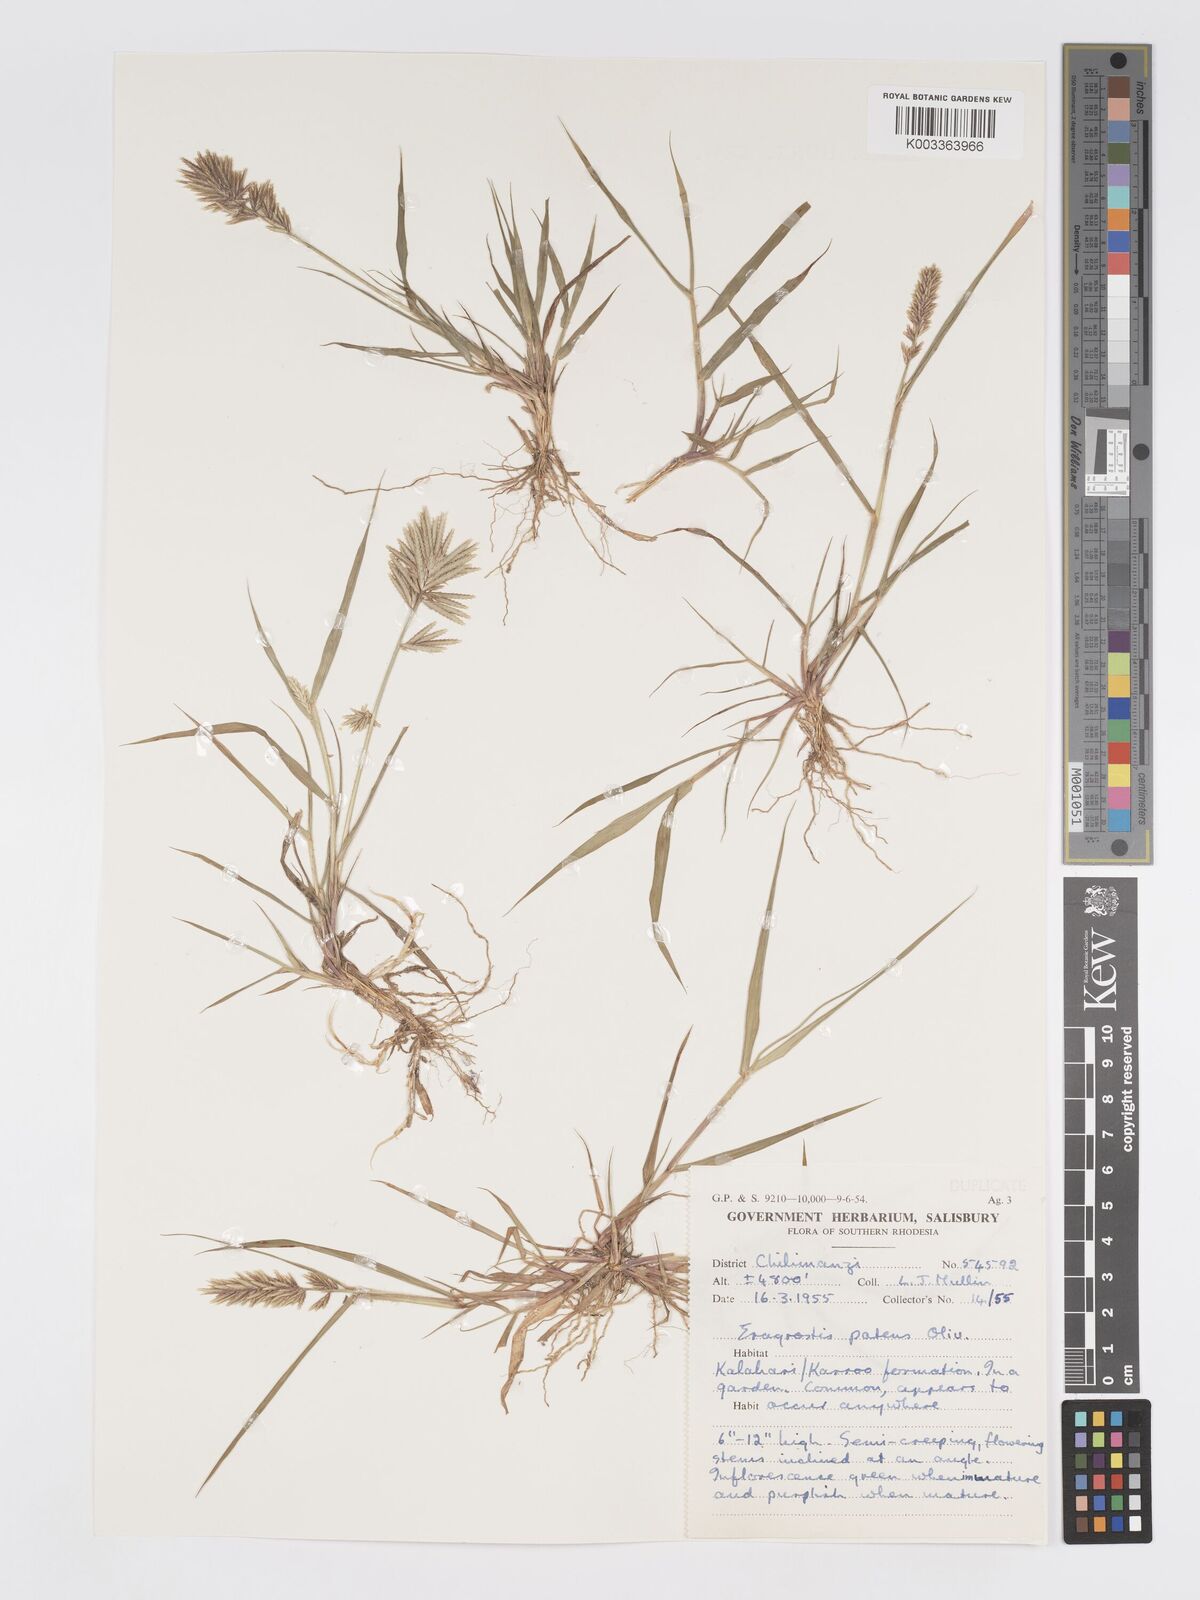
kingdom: Plantae
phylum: Tracheophyta
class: Liliopsida
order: Poales
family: Poaceae
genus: Eragrostis
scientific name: Eragrostis patens
